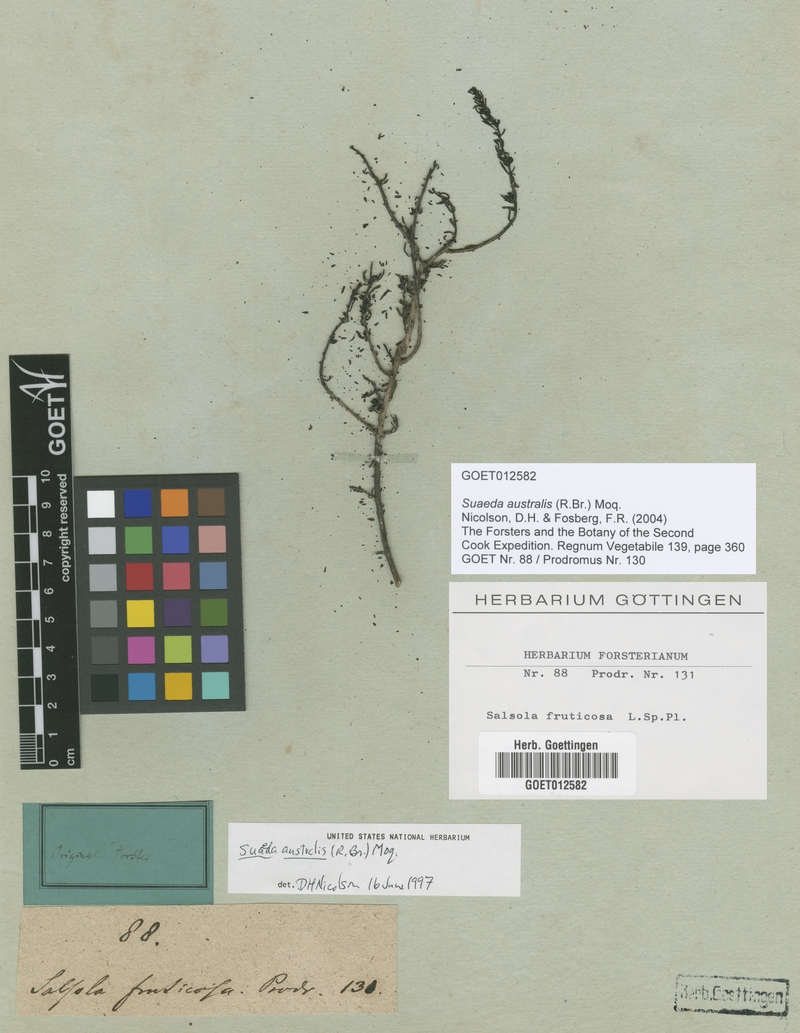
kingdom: Plantae
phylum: Tracheophyta
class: Magnoliopsida
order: Caryophyllales
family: Amaranthaceae
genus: Suaeda
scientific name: Suaeda australis
